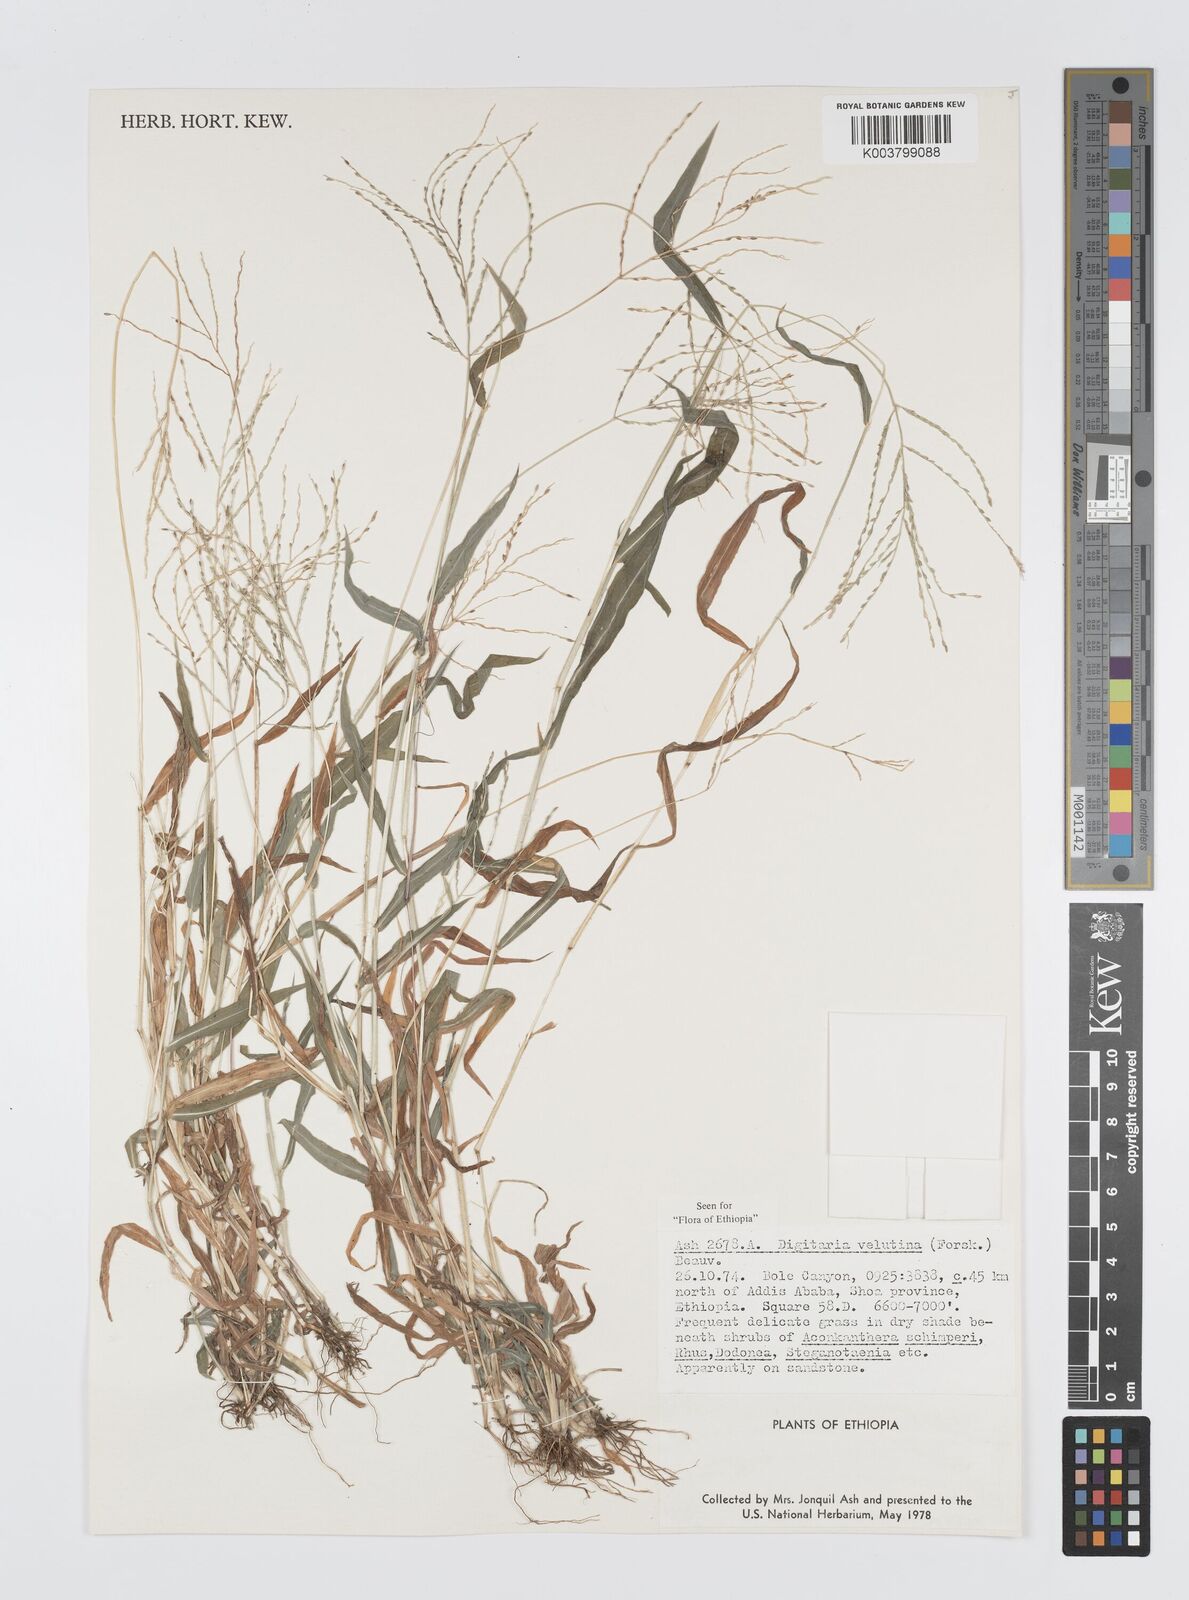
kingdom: Plantae
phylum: Tracheophyta
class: Liliopsida
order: Poales
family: Poaceae
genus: Digitaria
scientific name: Digitaria velutina
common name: Long-plume finger grass
